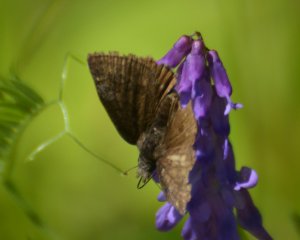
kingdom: Animalia
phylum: Arthropoda
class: Insecta
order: Lepidoptera
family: Hesperiidae
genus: Erynnis
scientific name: Erynnis icelus
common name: Dreamy Duskywing
